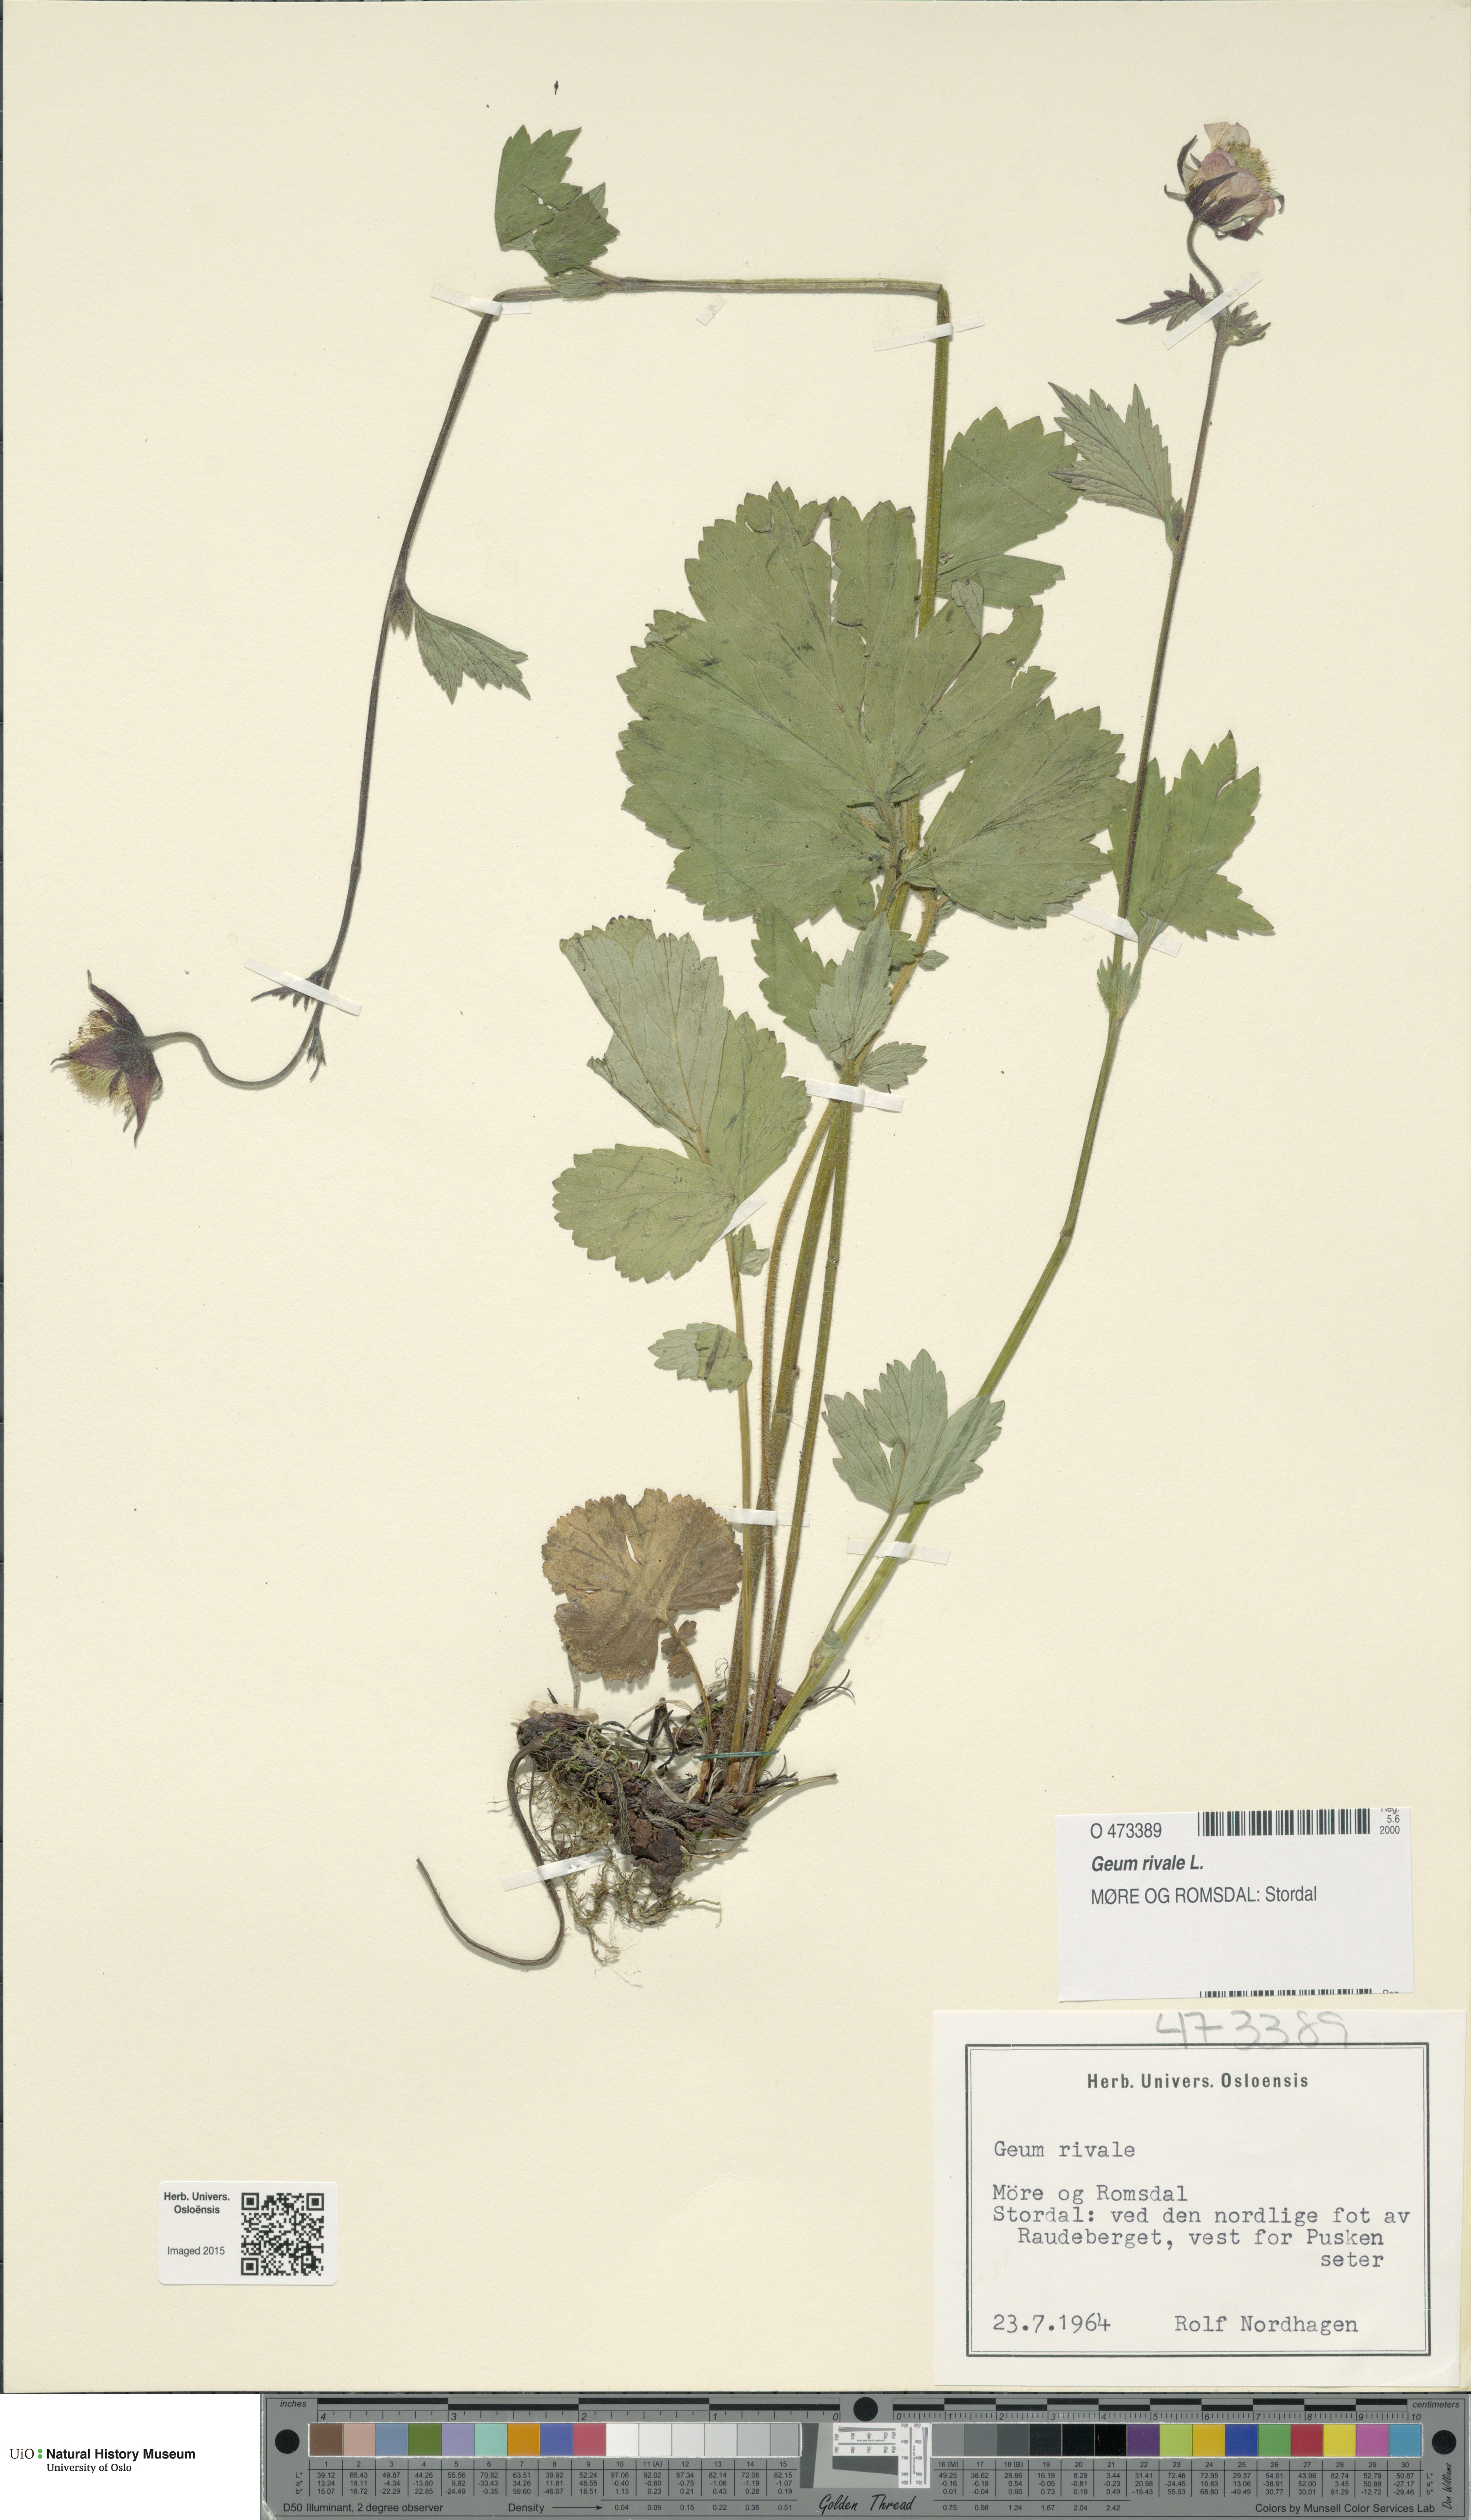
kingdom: Plantae
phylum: Tracheophyta
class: Magnoliopsida
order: Rosales
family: Rosaceae
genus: Geum
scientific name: Geum rivale
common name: Water avens
